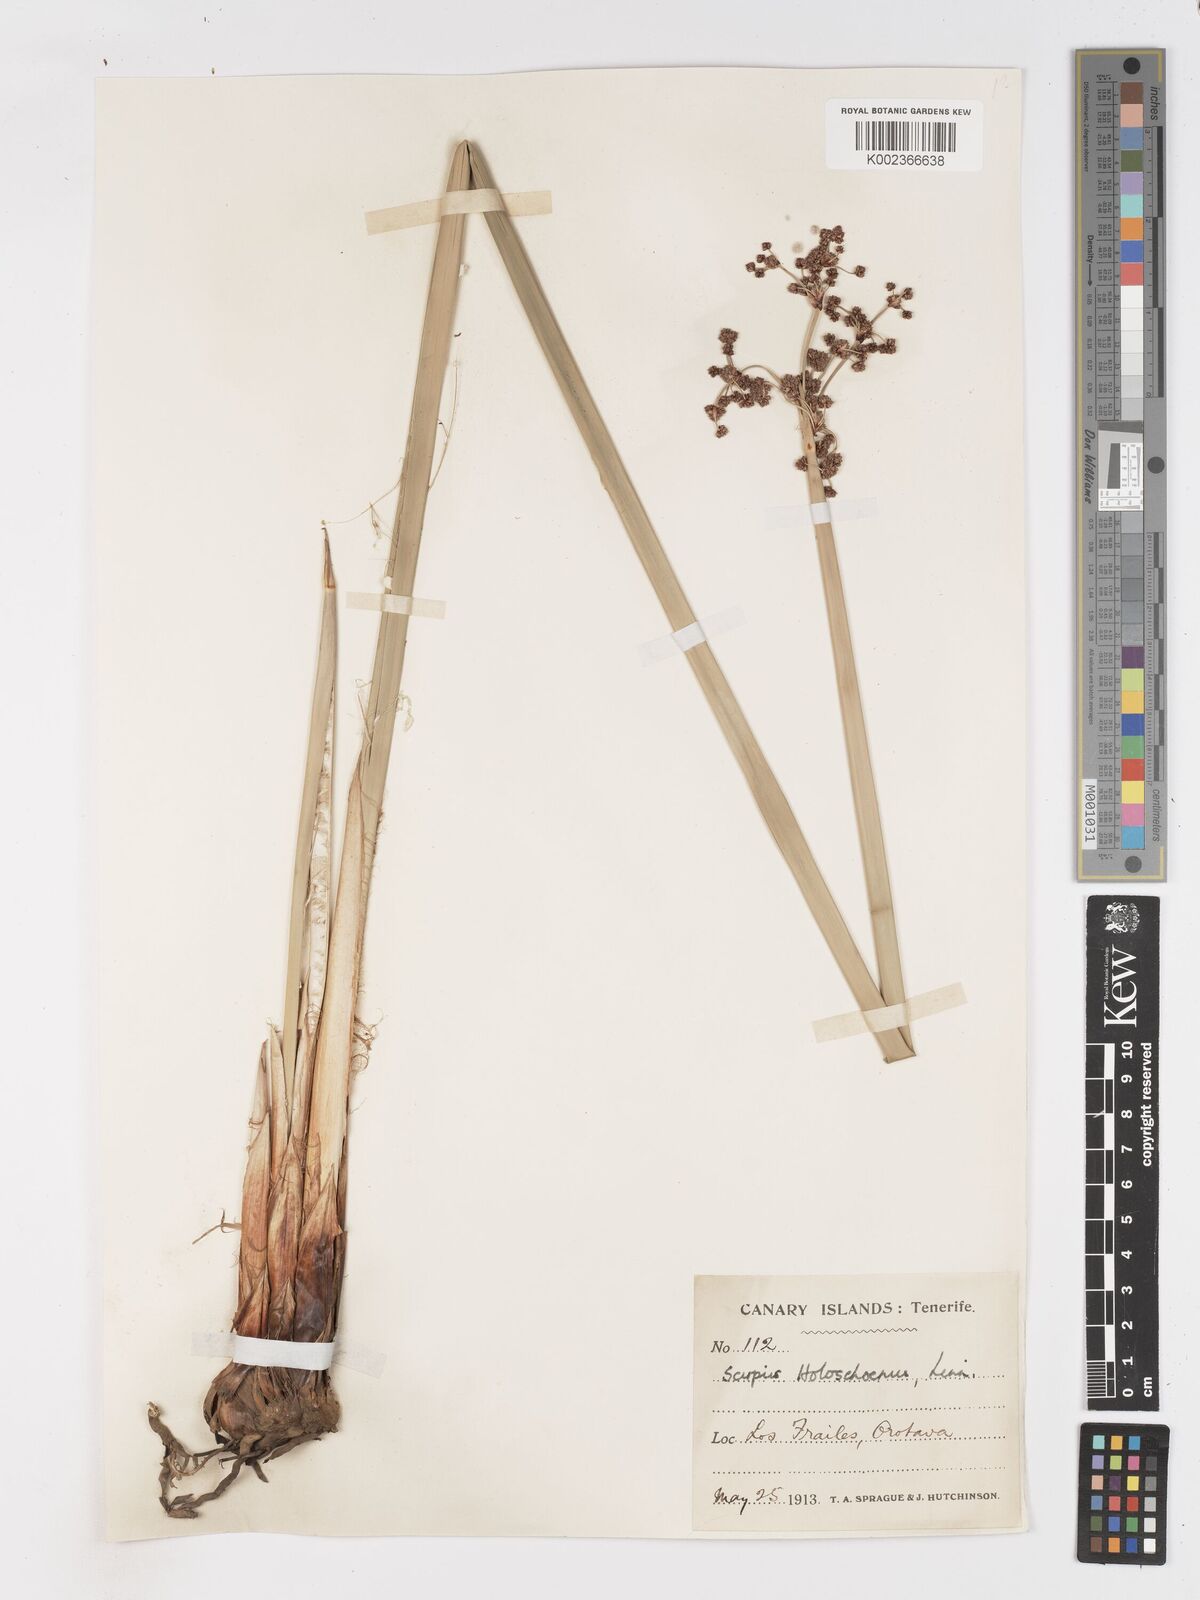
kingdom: Plantae
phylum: Tracheophyta
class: Liliopsida
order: Poales
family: Cyperaceae
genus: Scirpoides
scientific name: Scirpoides holoschoenus
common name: Round-headed club-rush
